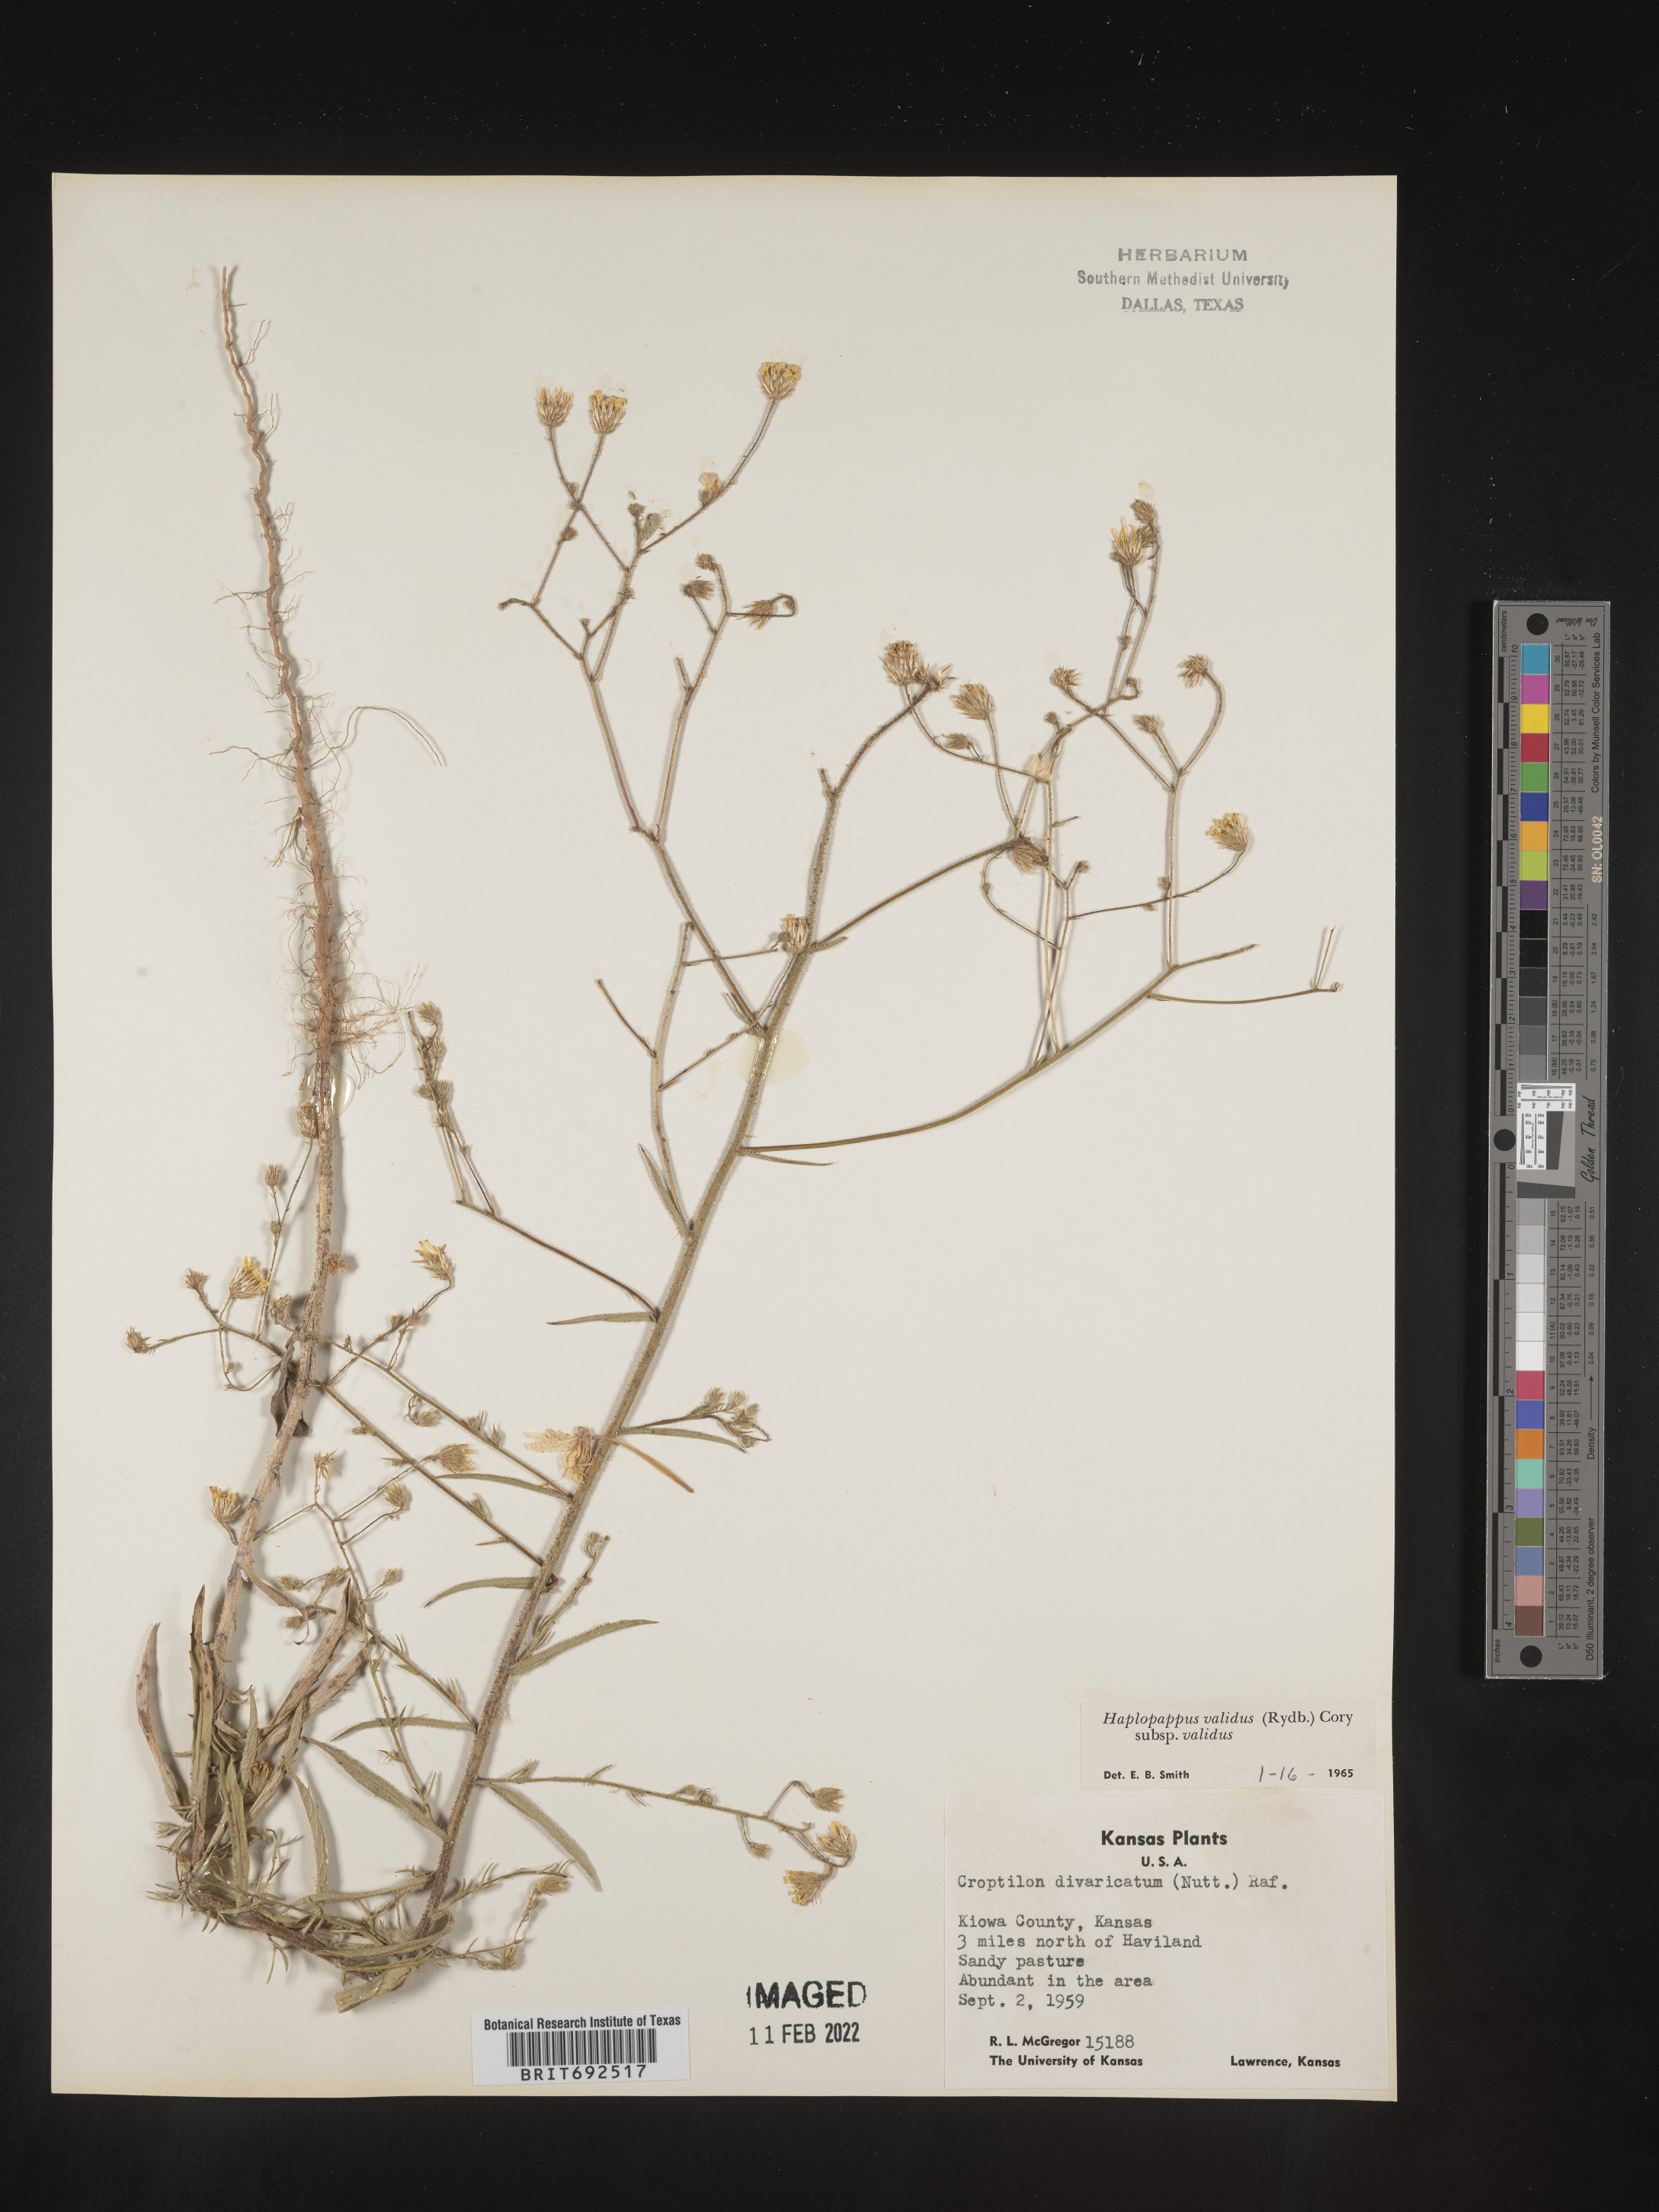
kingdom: Plantae
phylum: Tracheophyta
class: Magnoliopsida
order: Asterales
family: Asteraceae
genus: Croptilon
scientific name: Croptilon hookerianum
